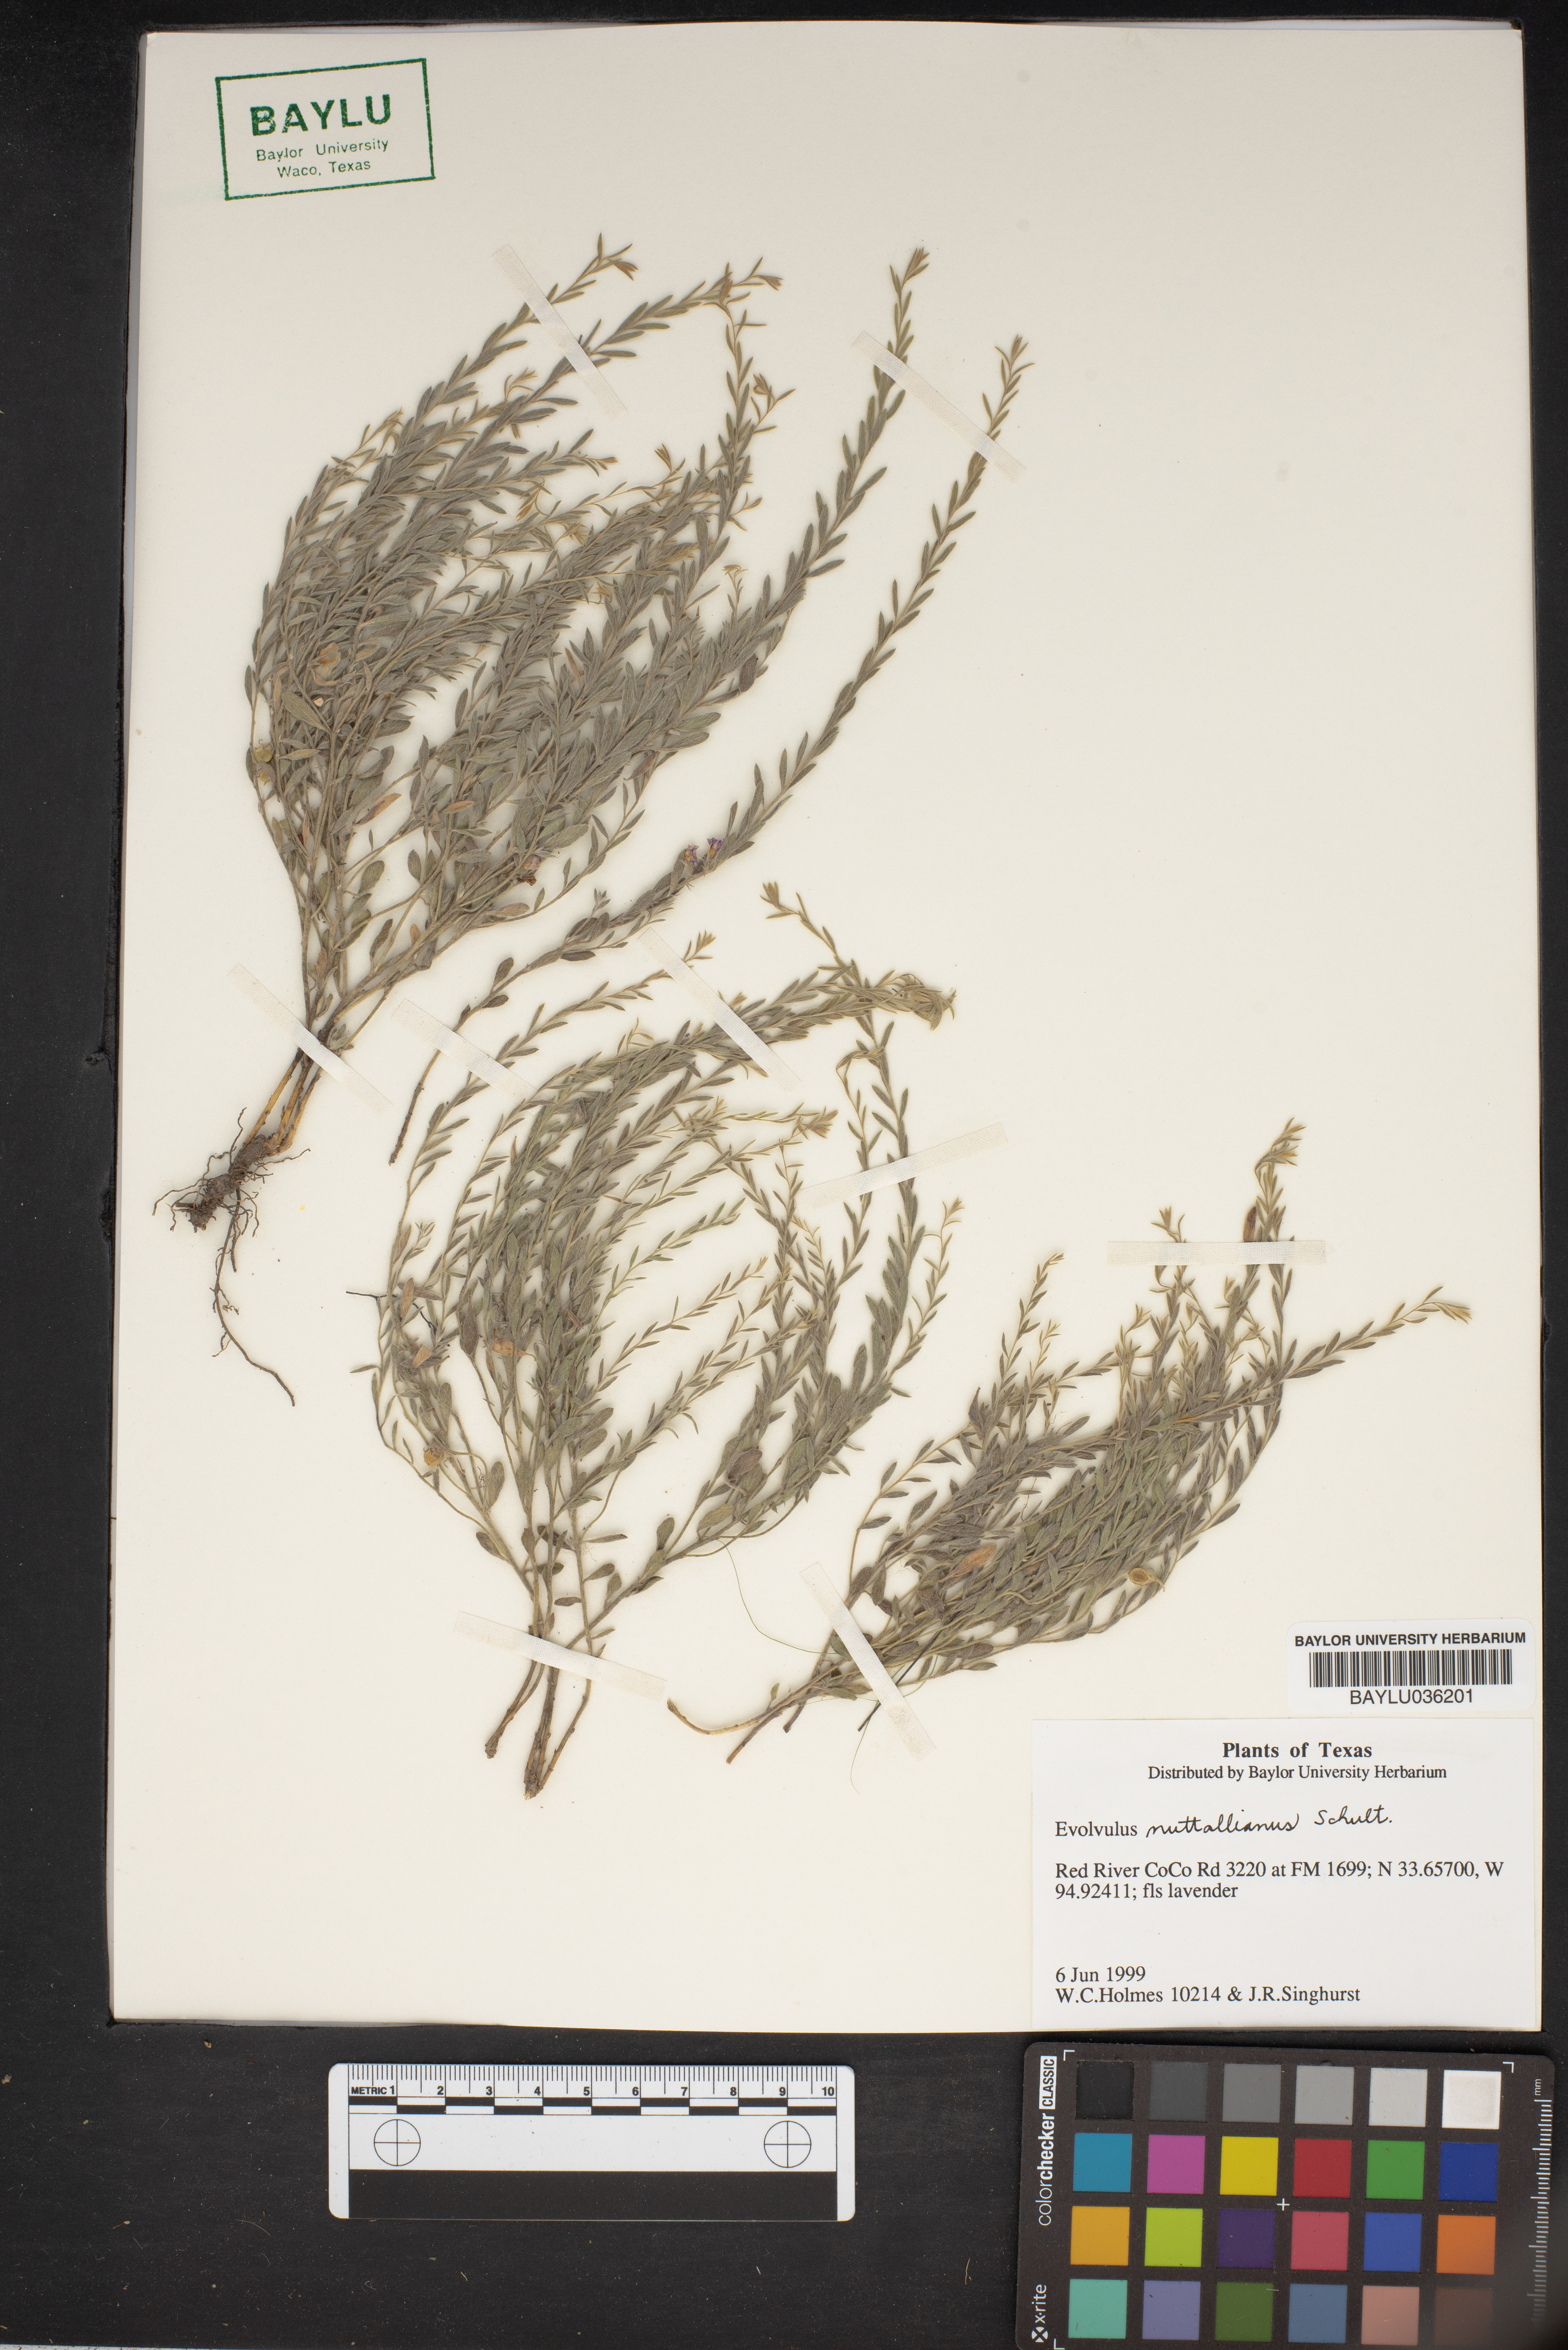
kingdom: Plantae
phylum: Tracheophyta
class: Magnoliopsida
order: Solanales
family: Convolvulaceae
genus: Evolvulus
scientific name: Evolvulus nuttallianus
